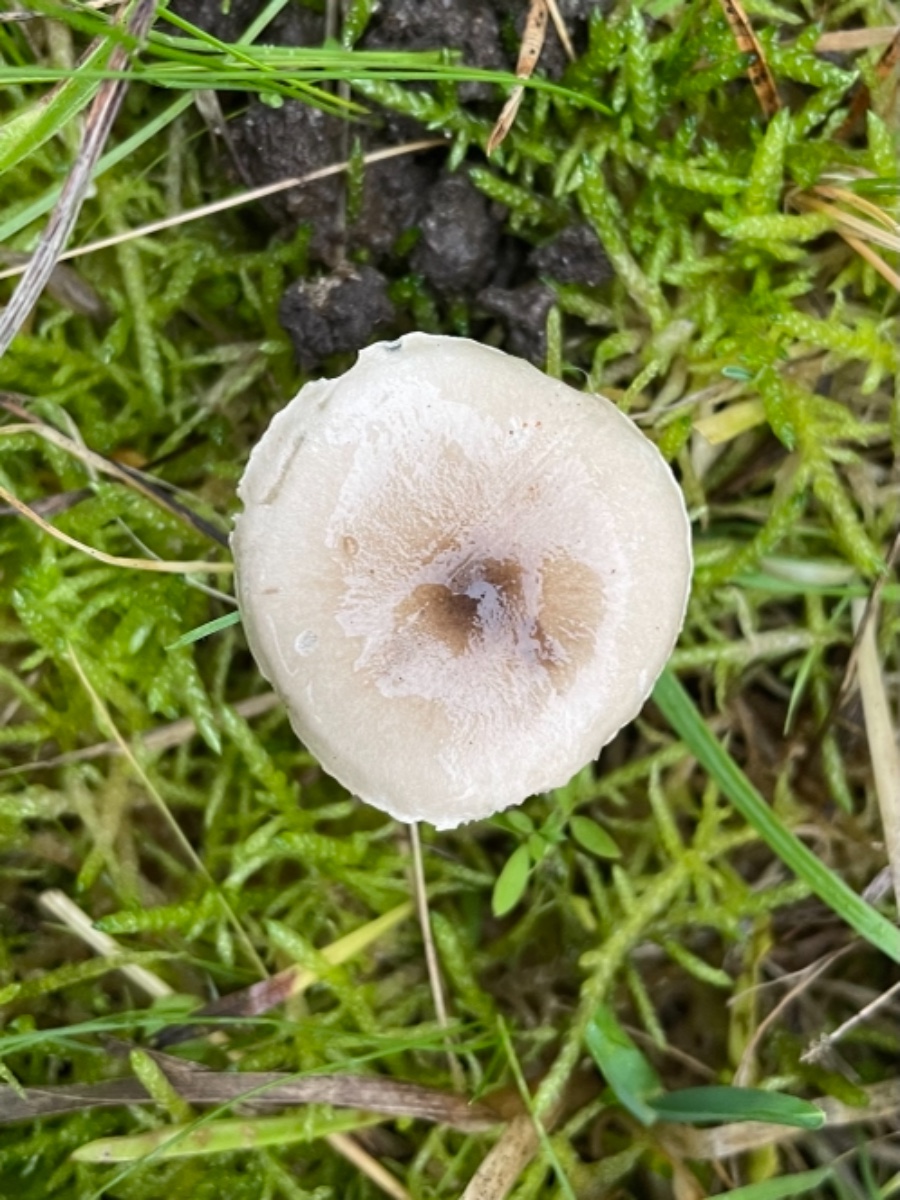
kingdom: Fungi
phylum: Basidiomycota
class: Agaricomycetes
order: Agaricales
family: Hygrophoraceae
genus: Hygrophorus
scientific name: Hygrophorus suaveolens
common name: parfumeret sneglehat
